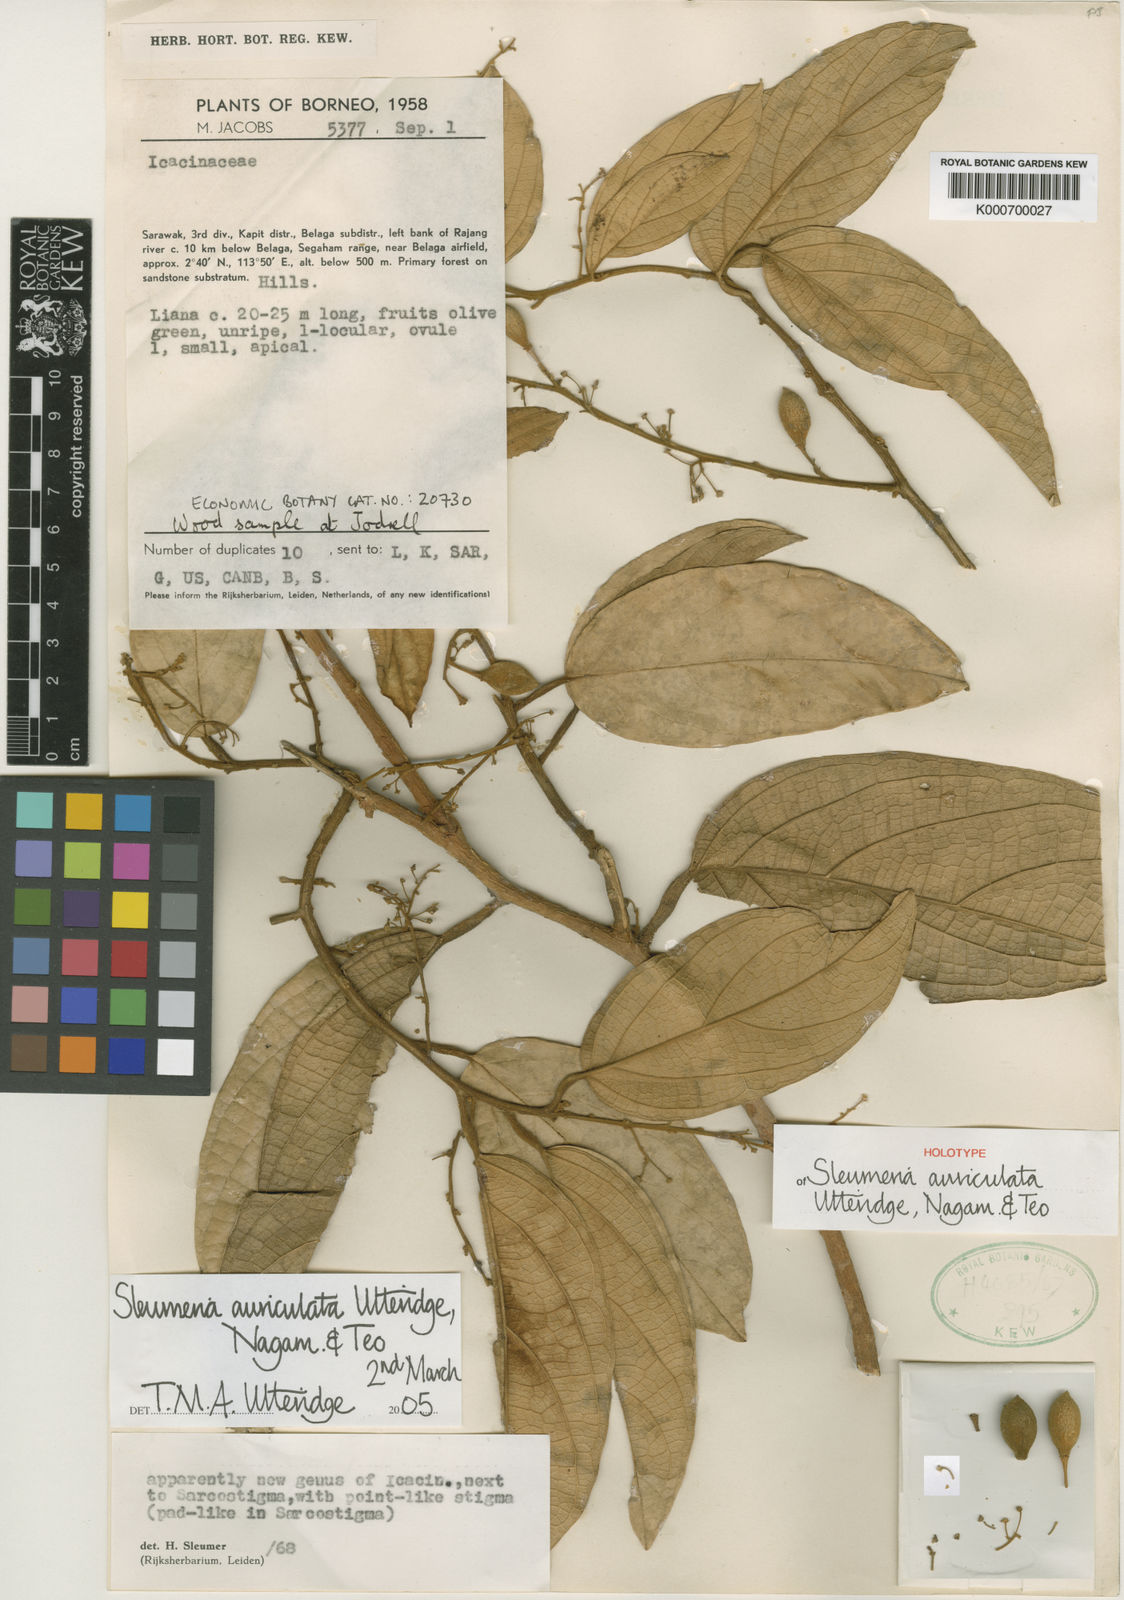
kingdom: Plantae
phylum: Tracheophyta
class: Magnoliopsida
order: Icacinales
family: Icacinaceae
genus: Sleumeria
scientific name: Sleumeria auriculata
